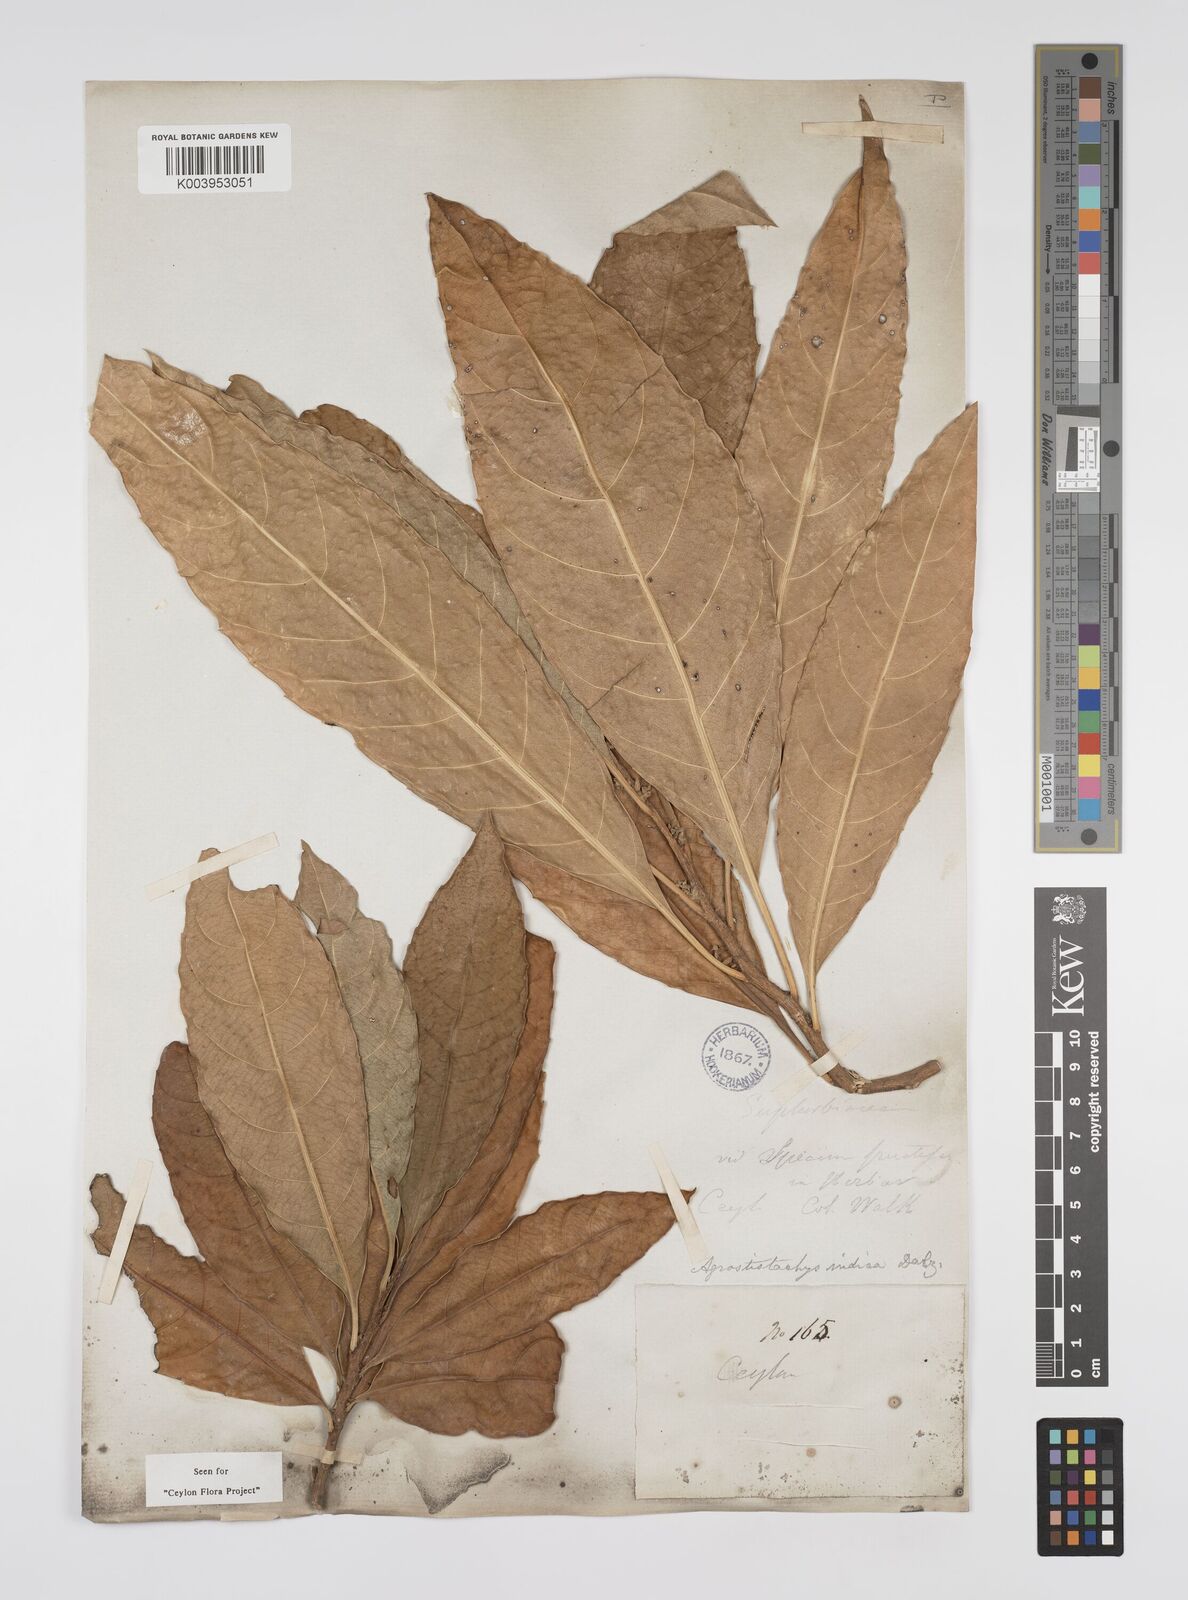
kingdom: Plantae
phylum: Tracheophyta
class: Magnoliopsida
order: Malpighiales
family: Euphorbiaceae
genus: Agrostistachys
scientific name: Agrostistachys indica
